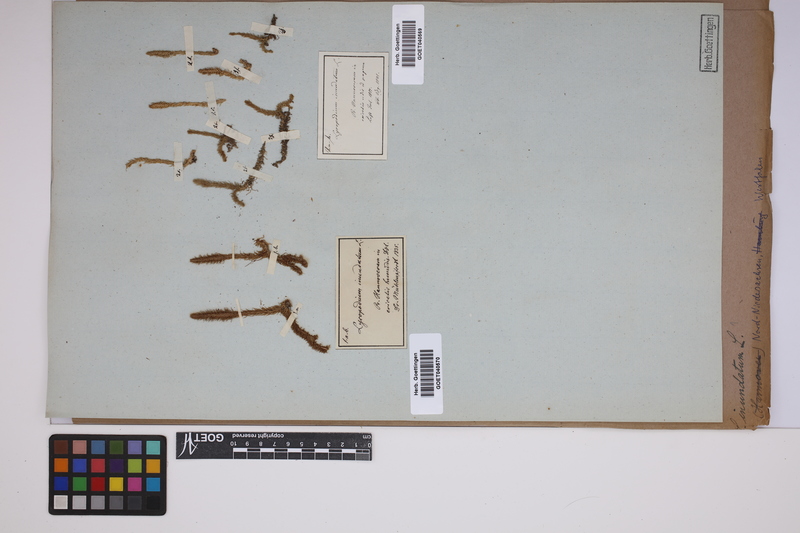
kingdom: Plantae
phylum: Tracheophyta
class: Lycopodiopsida
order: Lycopodiales
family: Lycopodiaceae
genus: Lycopodiella
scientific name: Lycopodiella inundata
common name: Marsh clubmoss
